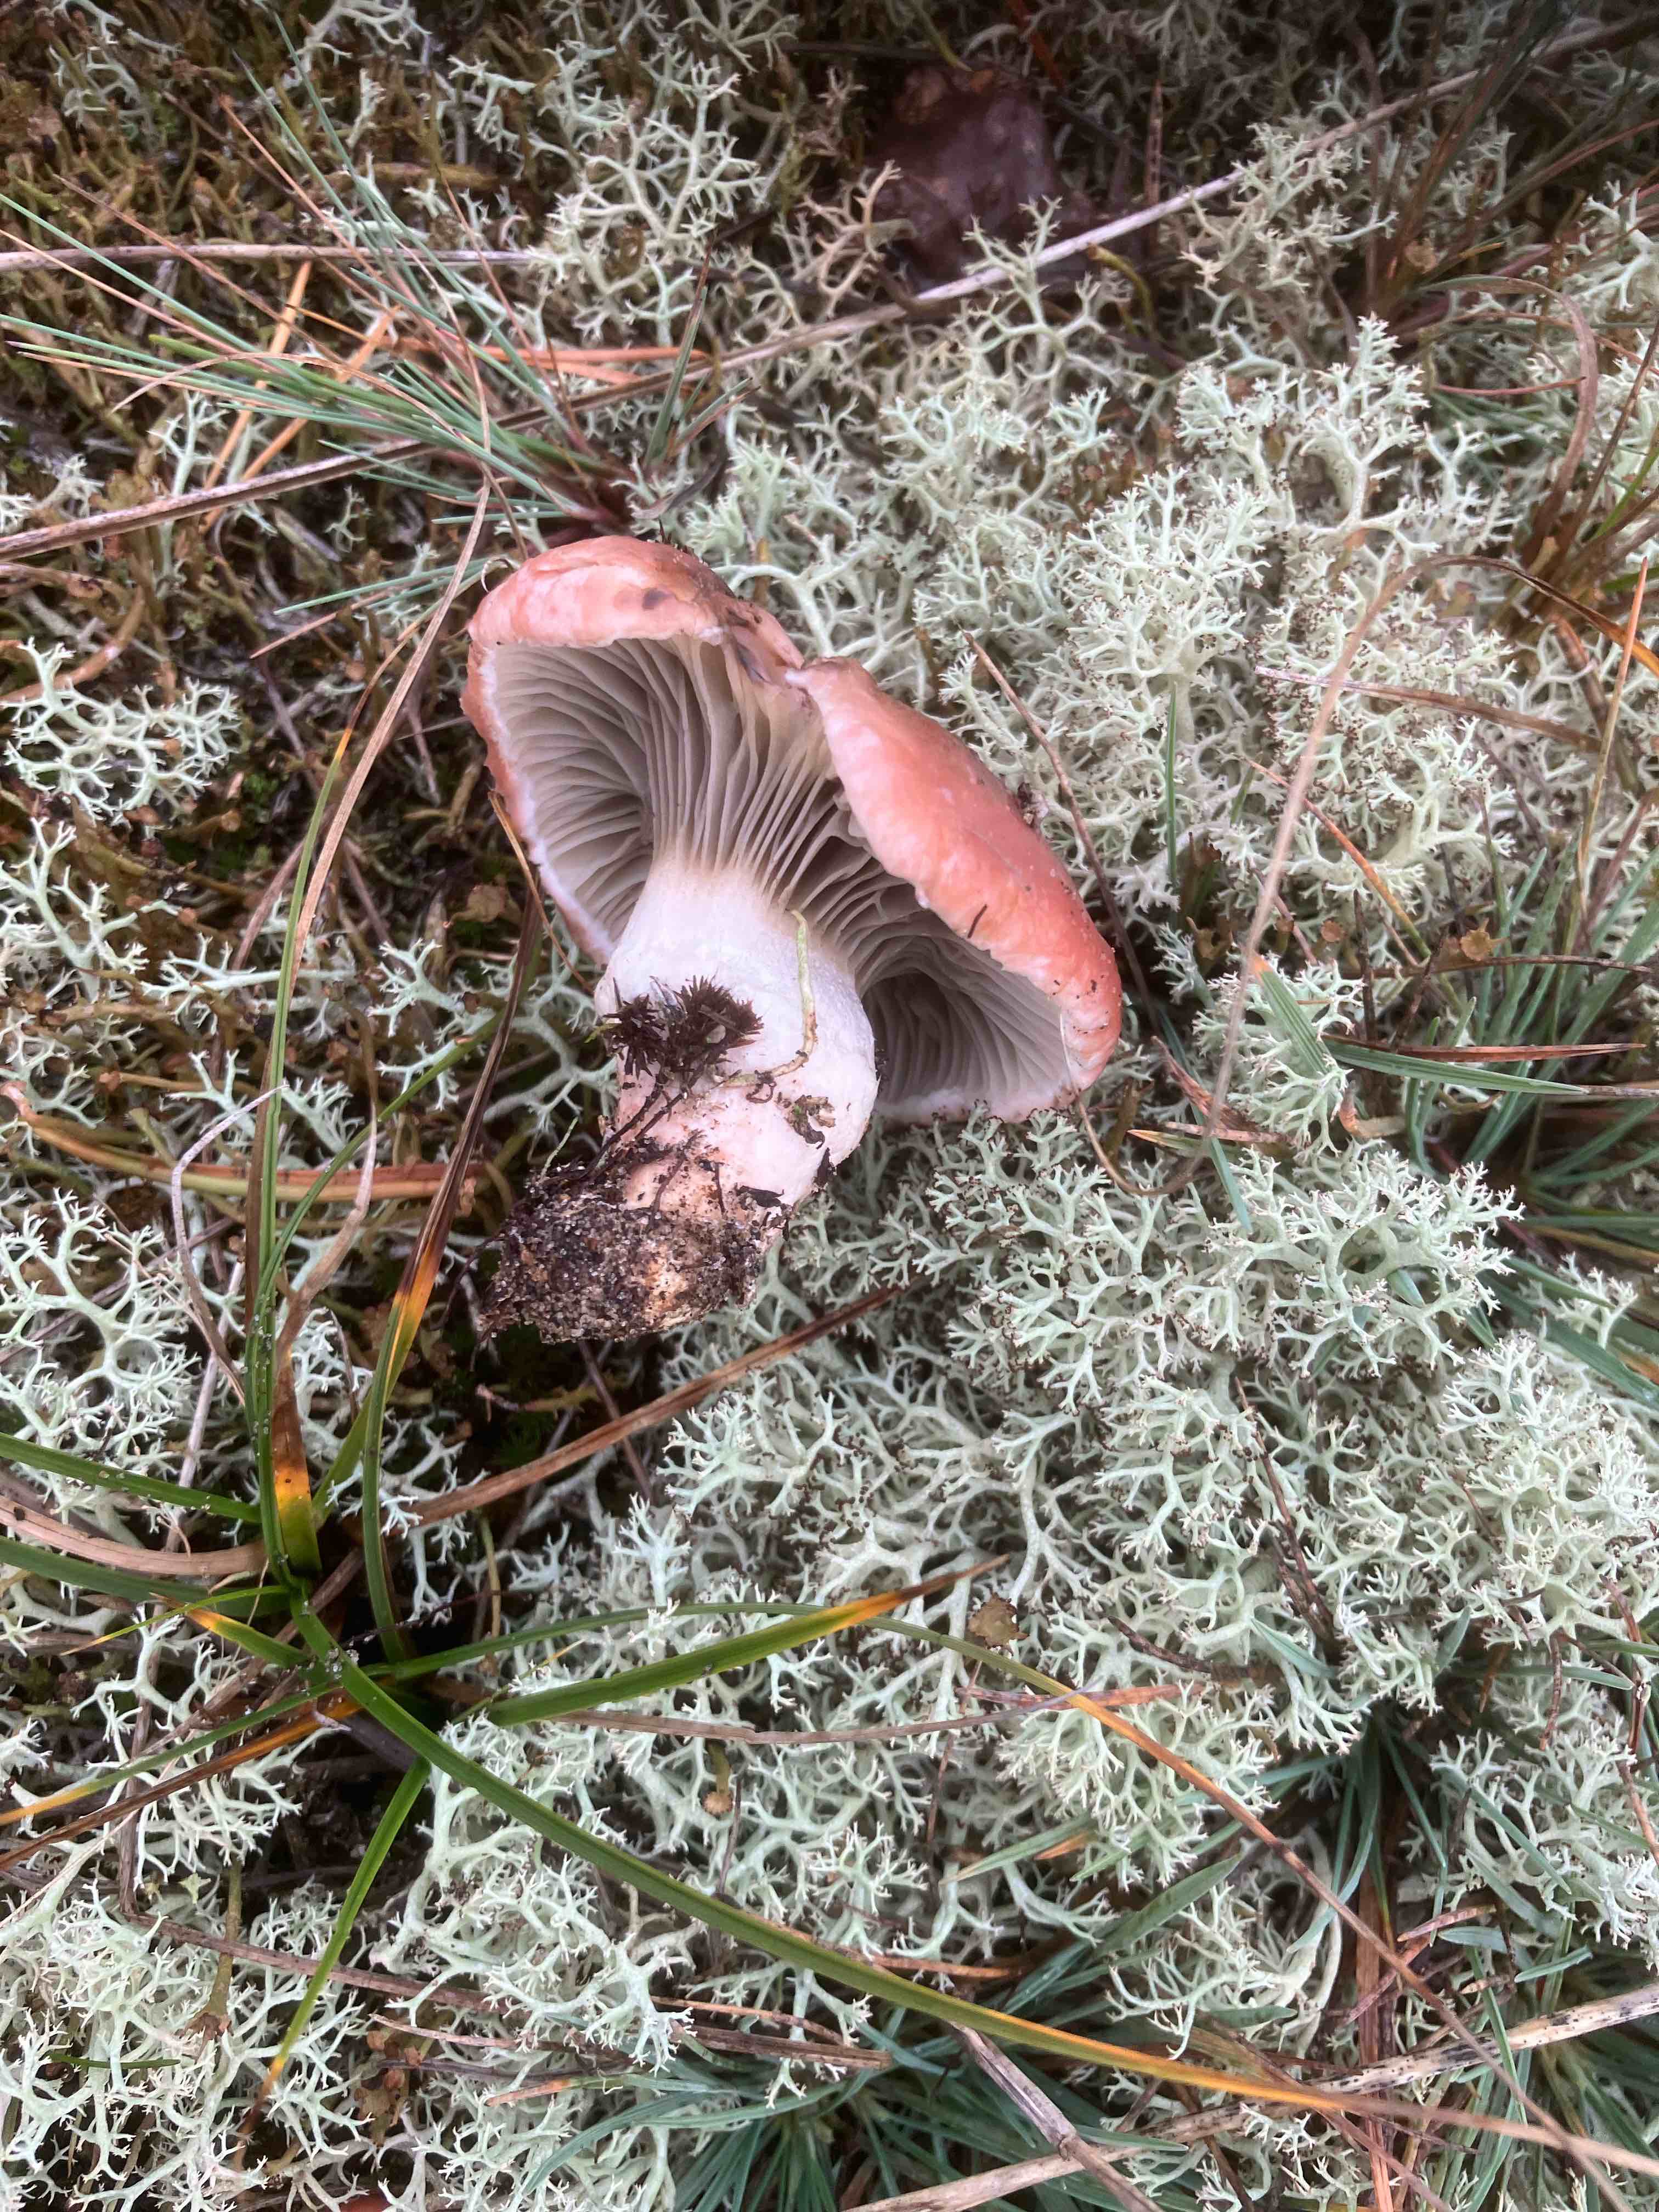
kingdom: Fungi
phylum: Basidiomycota
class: Agaricomycetes
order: Boletales
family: Gomphidiaceae
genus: Gomphidius
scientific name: Gomphidius roseus
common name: rosenrød slimslør
